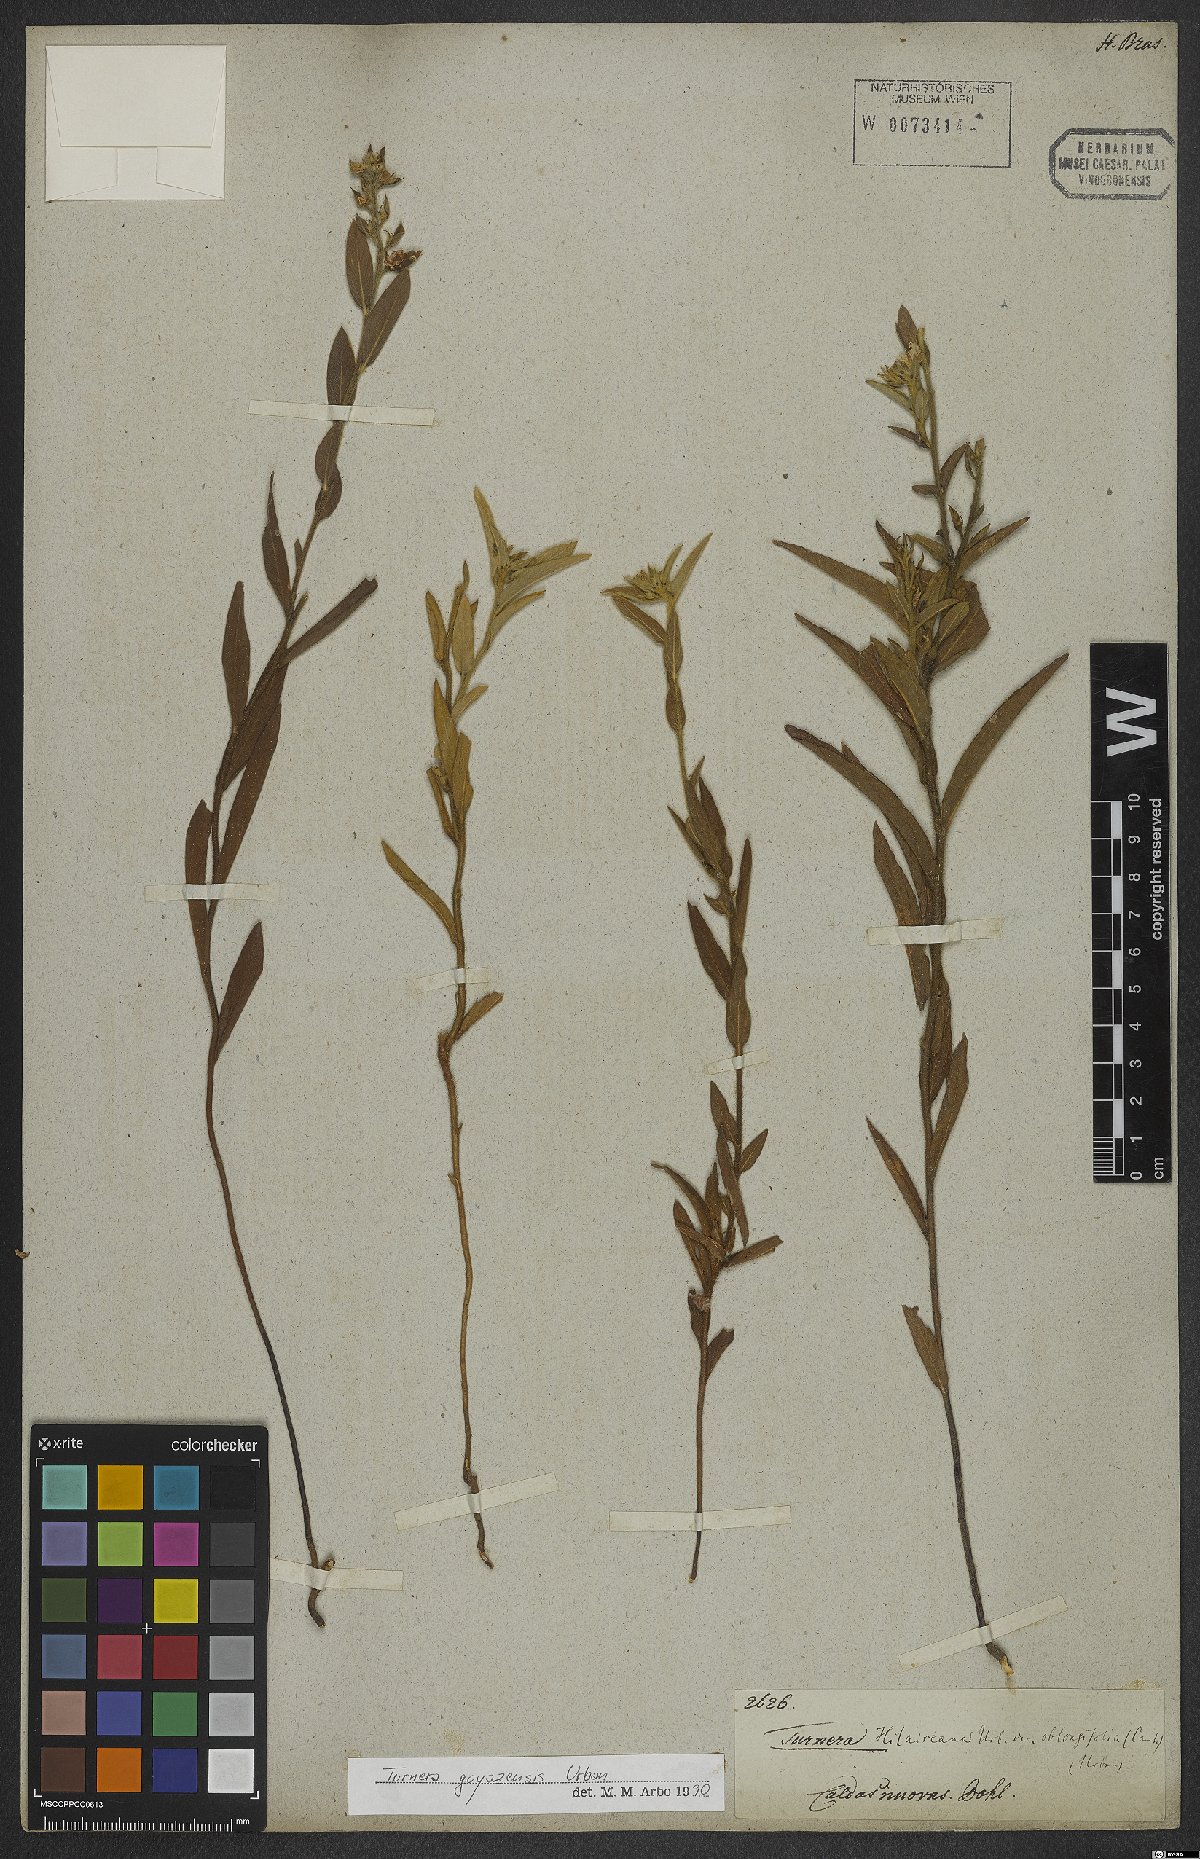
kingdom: Plantae
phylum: Tracheophyta
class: Magnoliopsida
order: Malpighiales
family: Turneraceae
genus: Turnera
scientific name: Turnera oblongifolia
